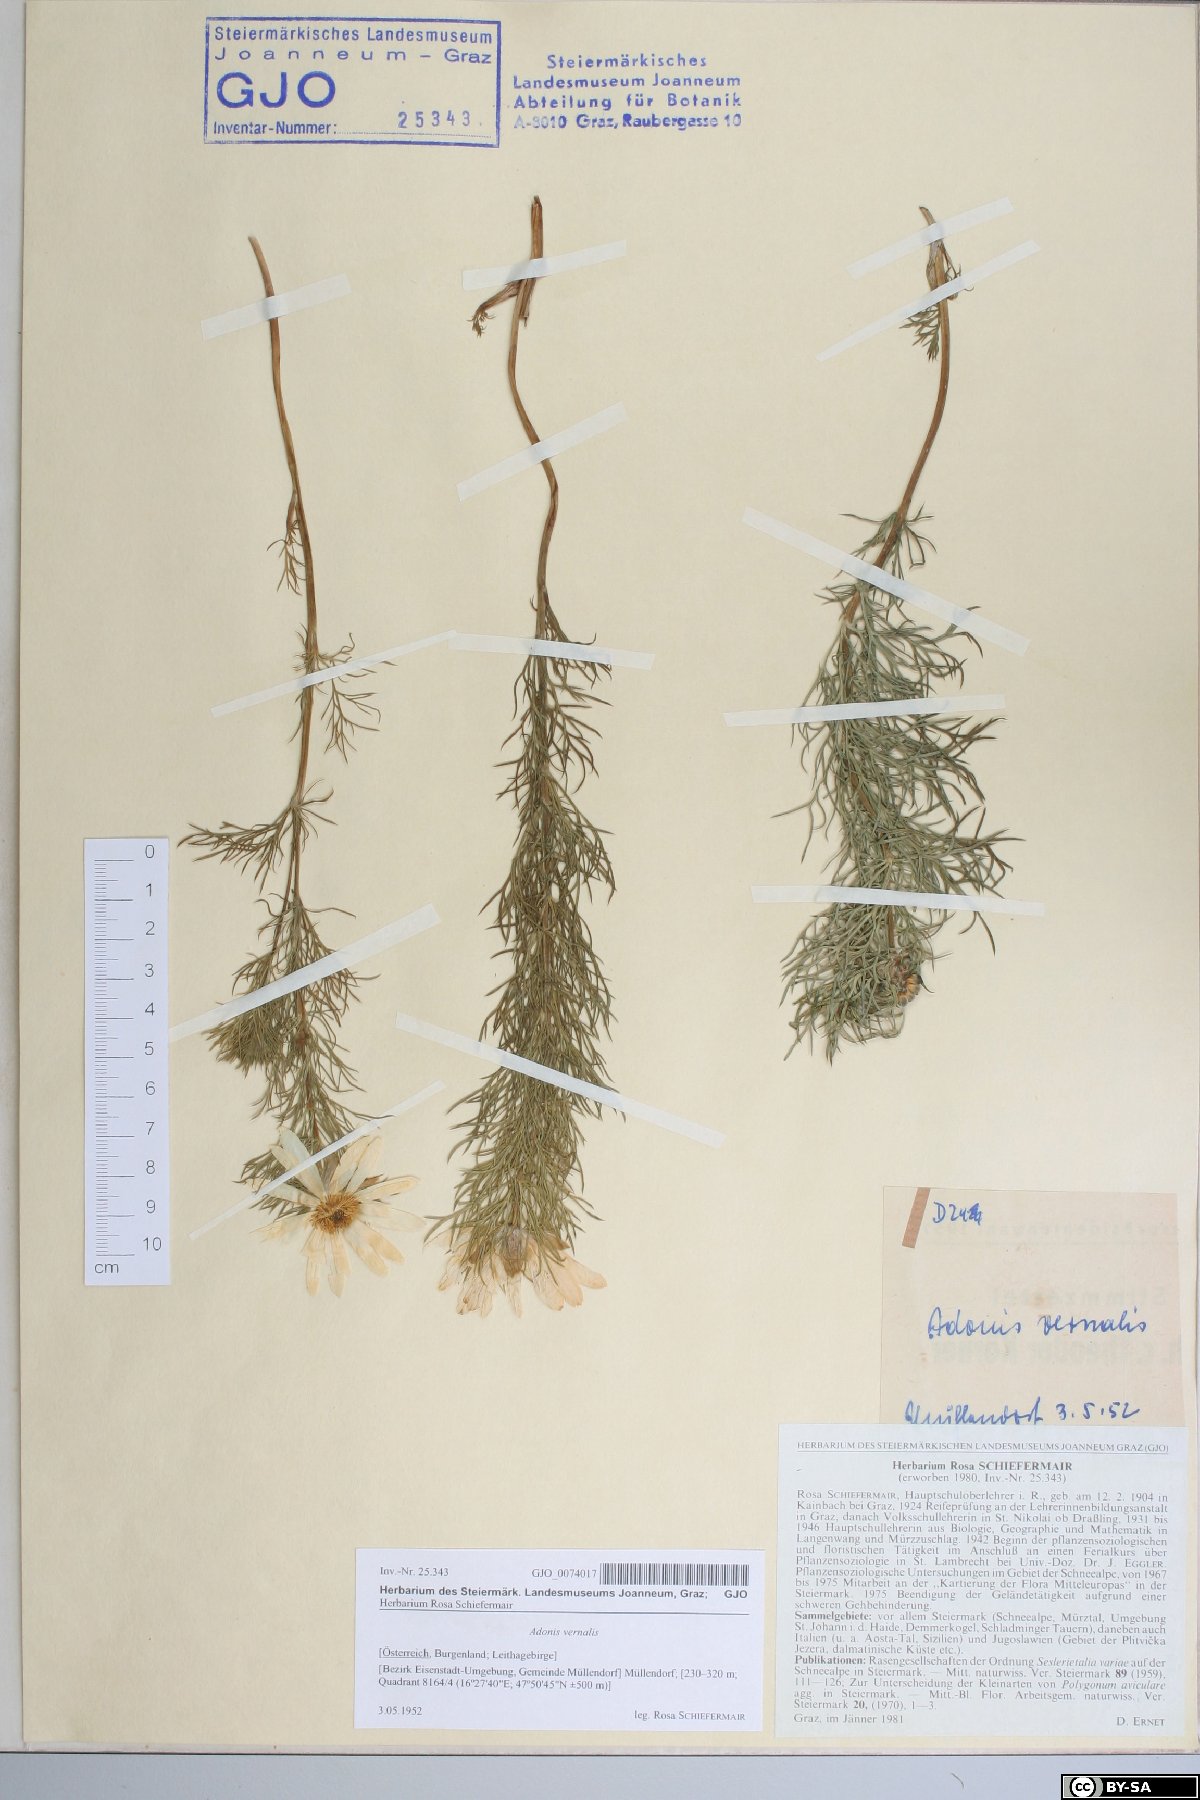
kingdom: Plantae
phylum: Tracheophyta
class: Magnoliopsida
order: Ranunculales
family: Ranunculaceae
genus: Adonis
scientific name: Adonis vernalis
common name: Yellow pheasants-eye
